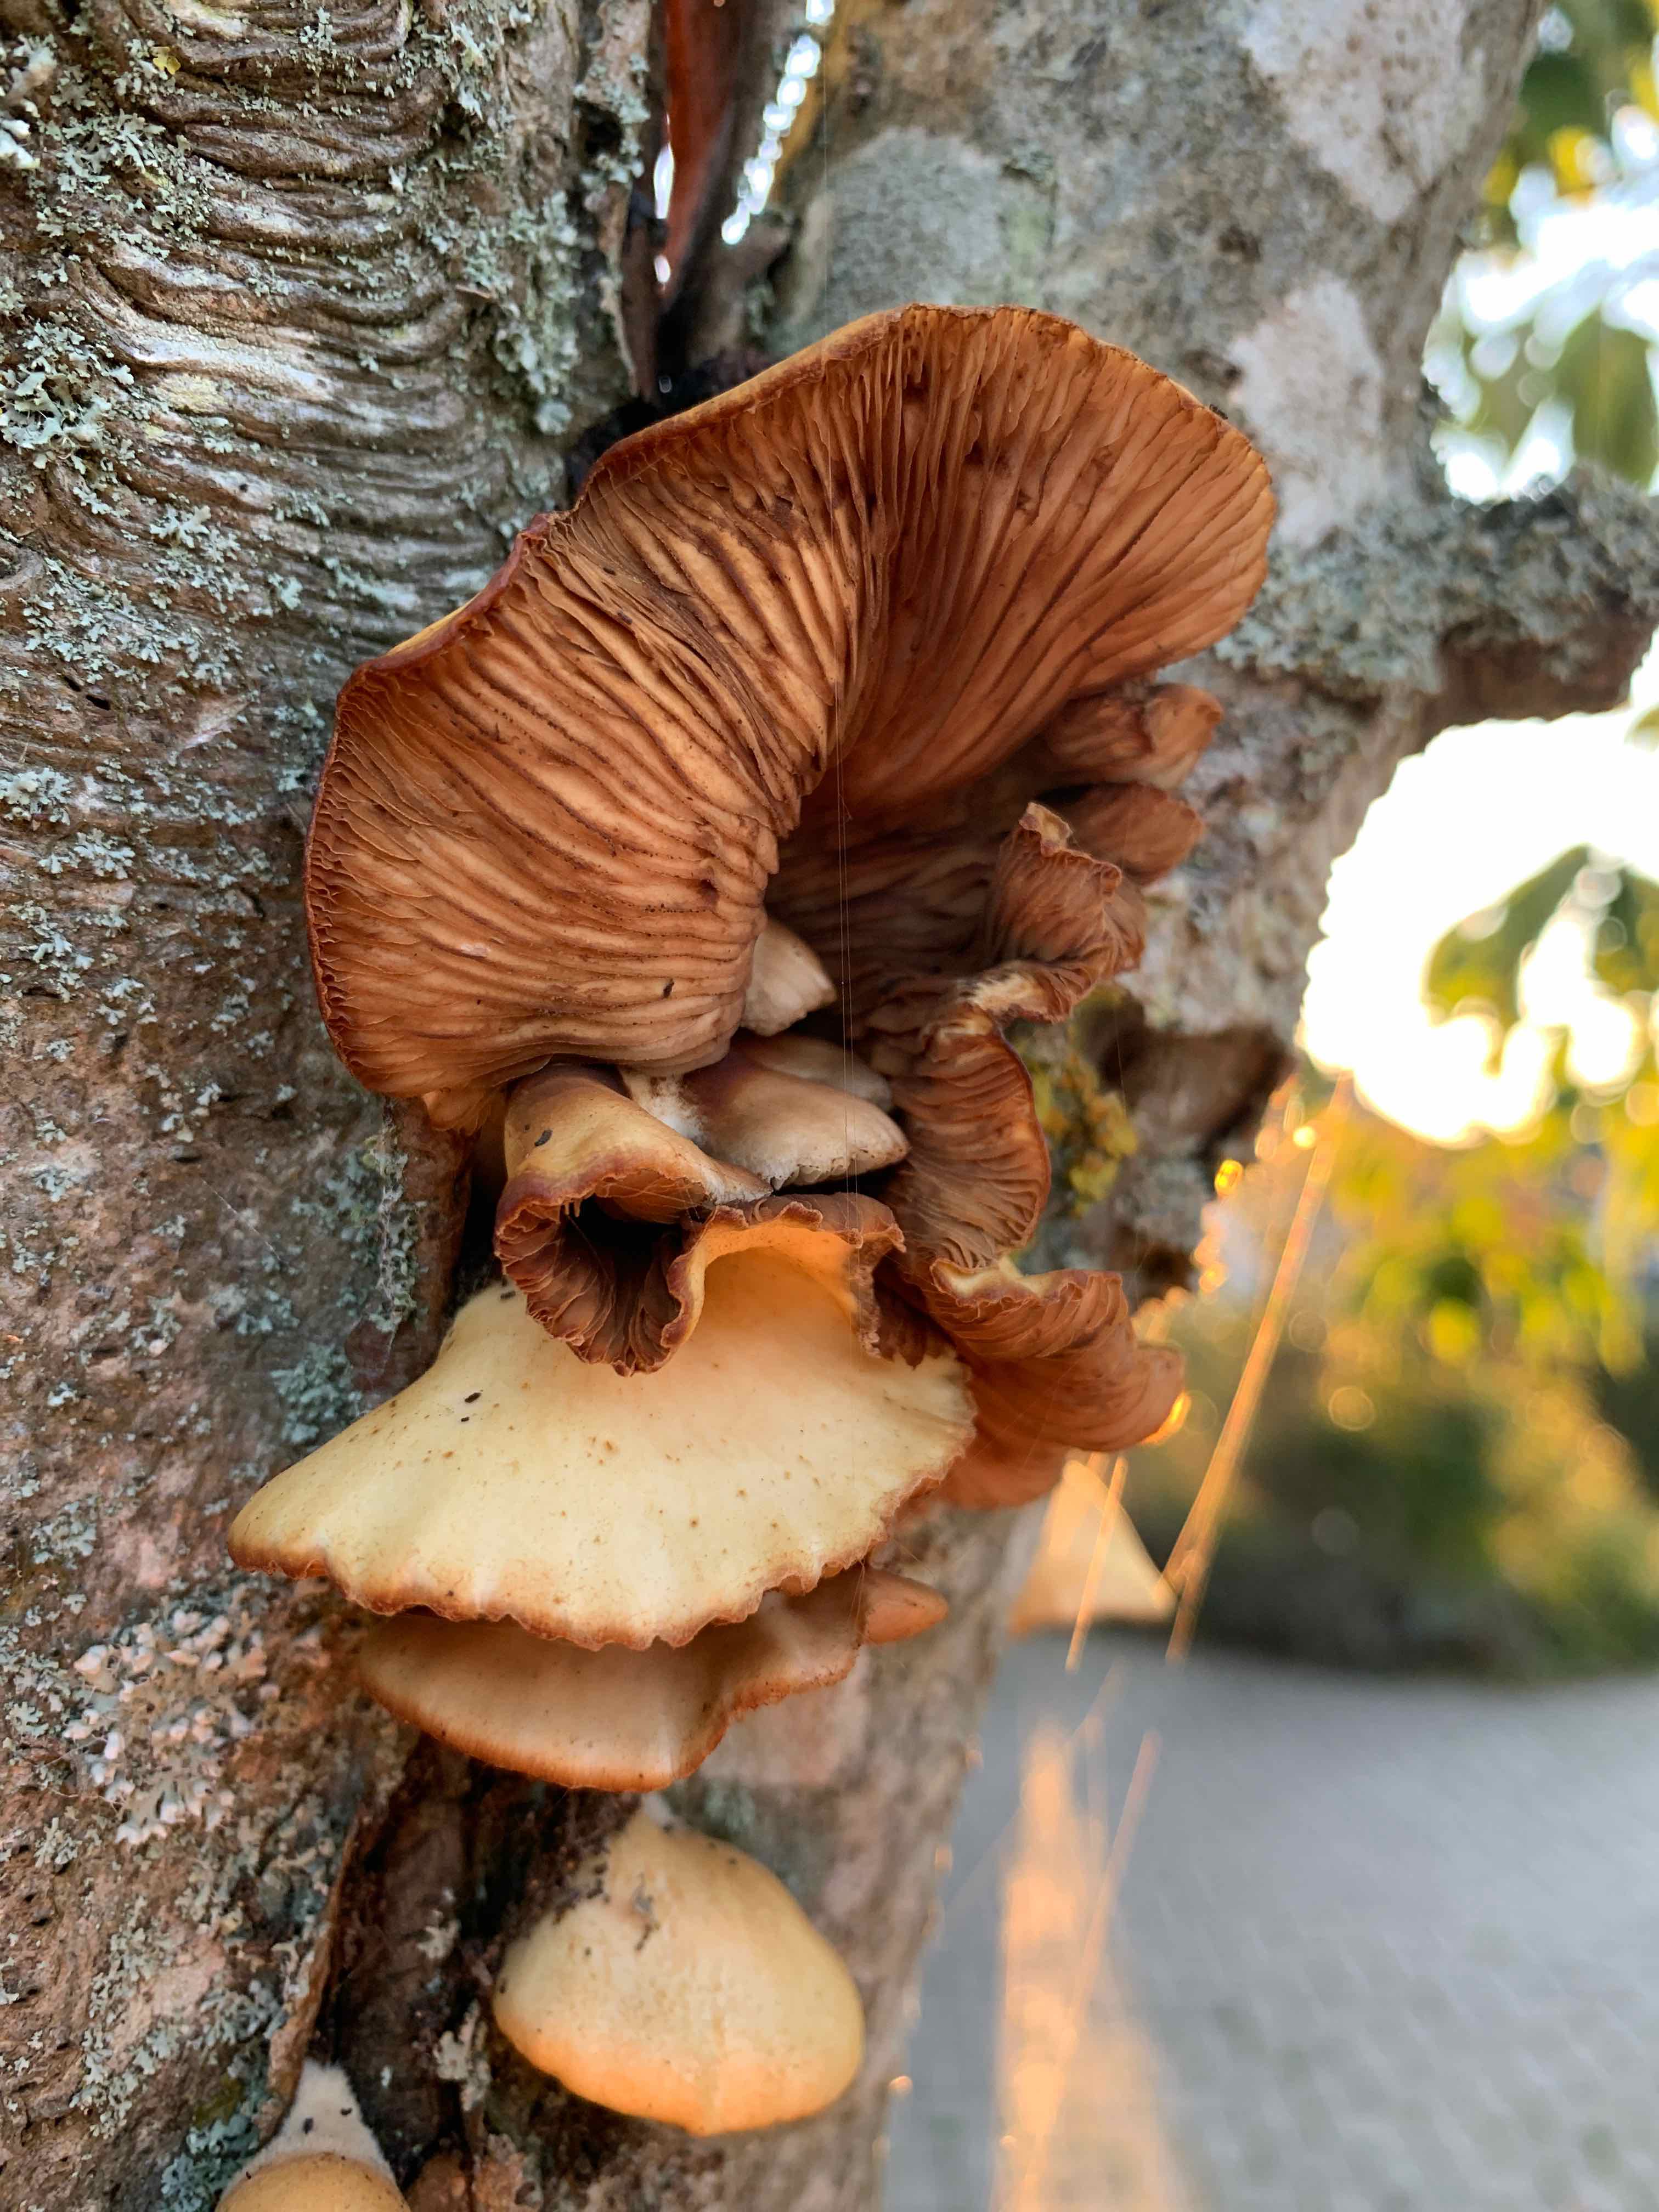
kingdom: Fungi
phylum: Basidiomycota
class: Agaricomycetes
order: Agaricales
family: Crepidotaceae
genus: Crepidotus
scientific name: Crepidotus mollis
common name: blød muslingesvamp
